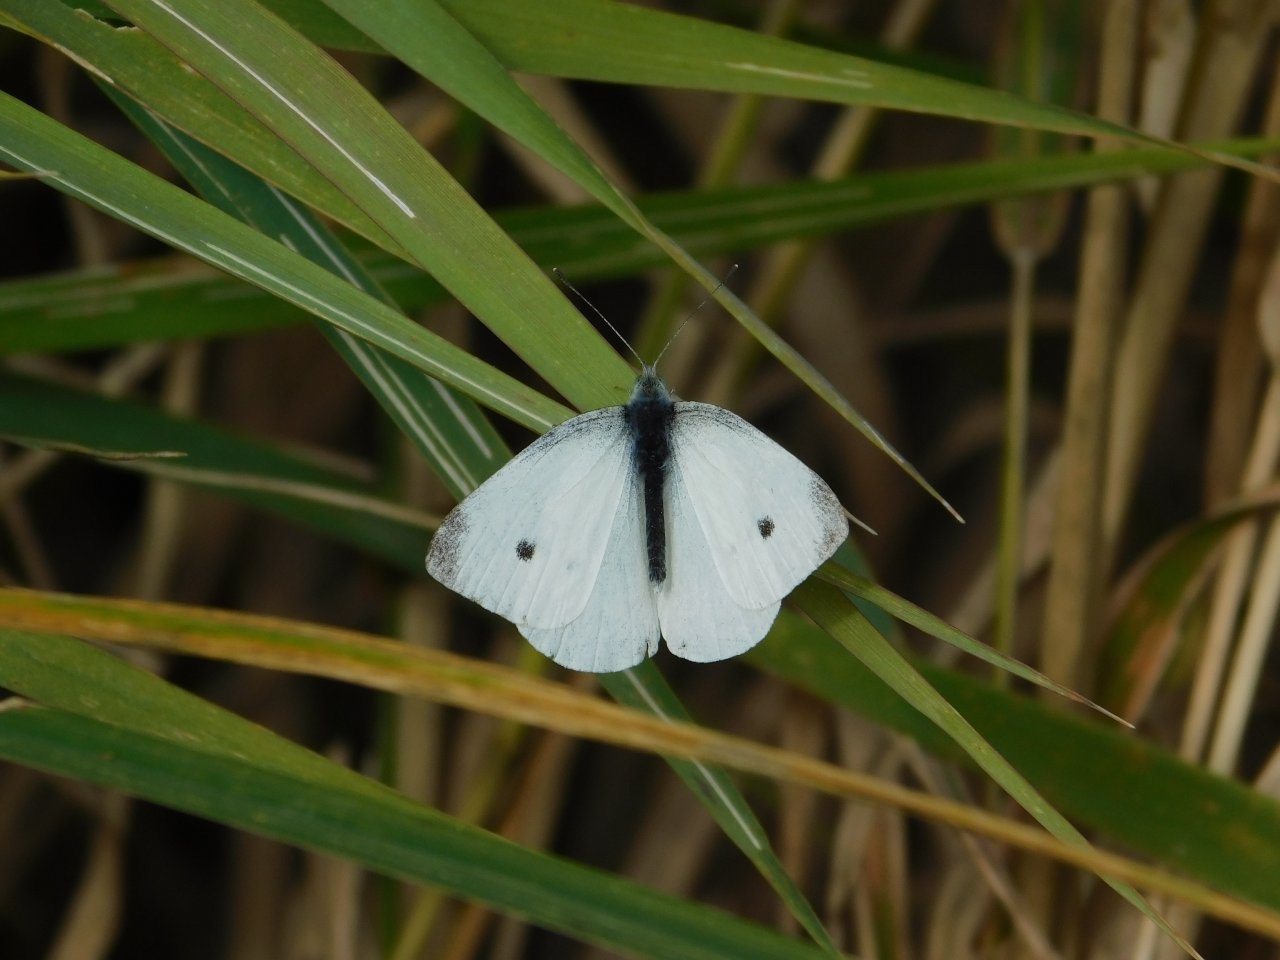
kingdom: Animalia
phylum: Arthropoda
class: Insecta
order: Lepidoptera
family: Pieridae
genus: Pieris
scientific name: Pieris rapae
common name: Cabbage White
